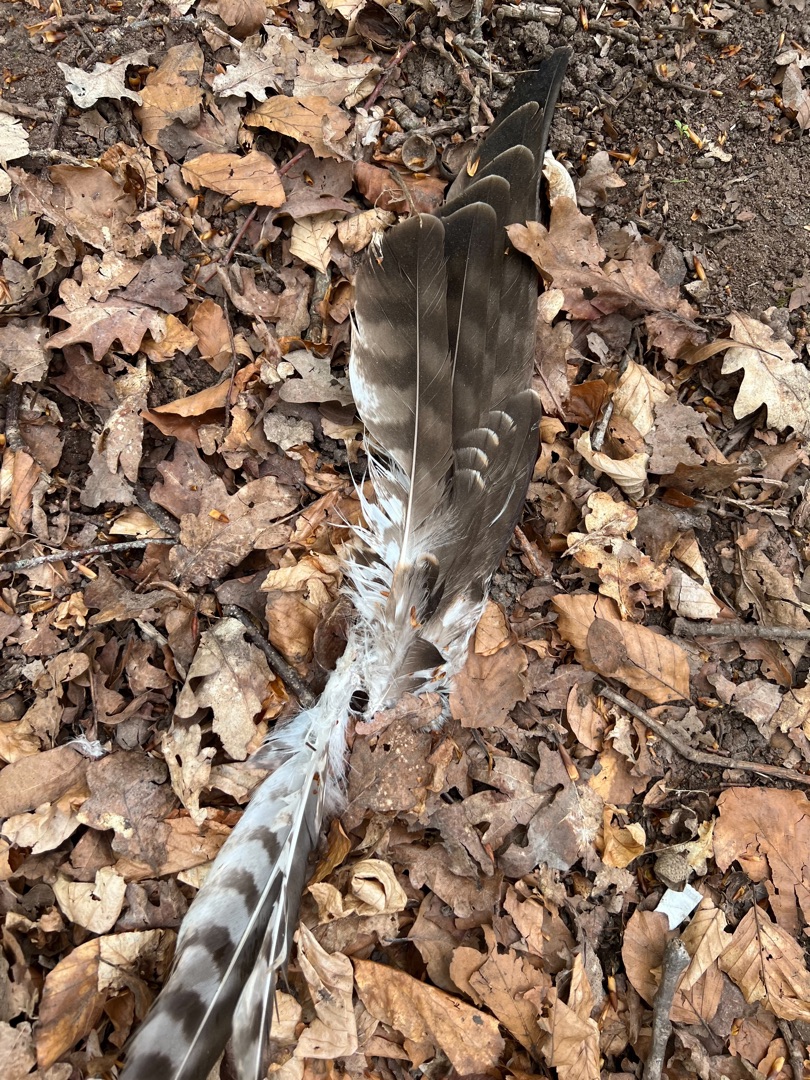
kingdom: Animalia
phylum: Chordata
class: Aves
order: Accipitriformes
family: Accipitridae
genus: Buteo
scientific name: Buteo buteo
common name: Musvåge
